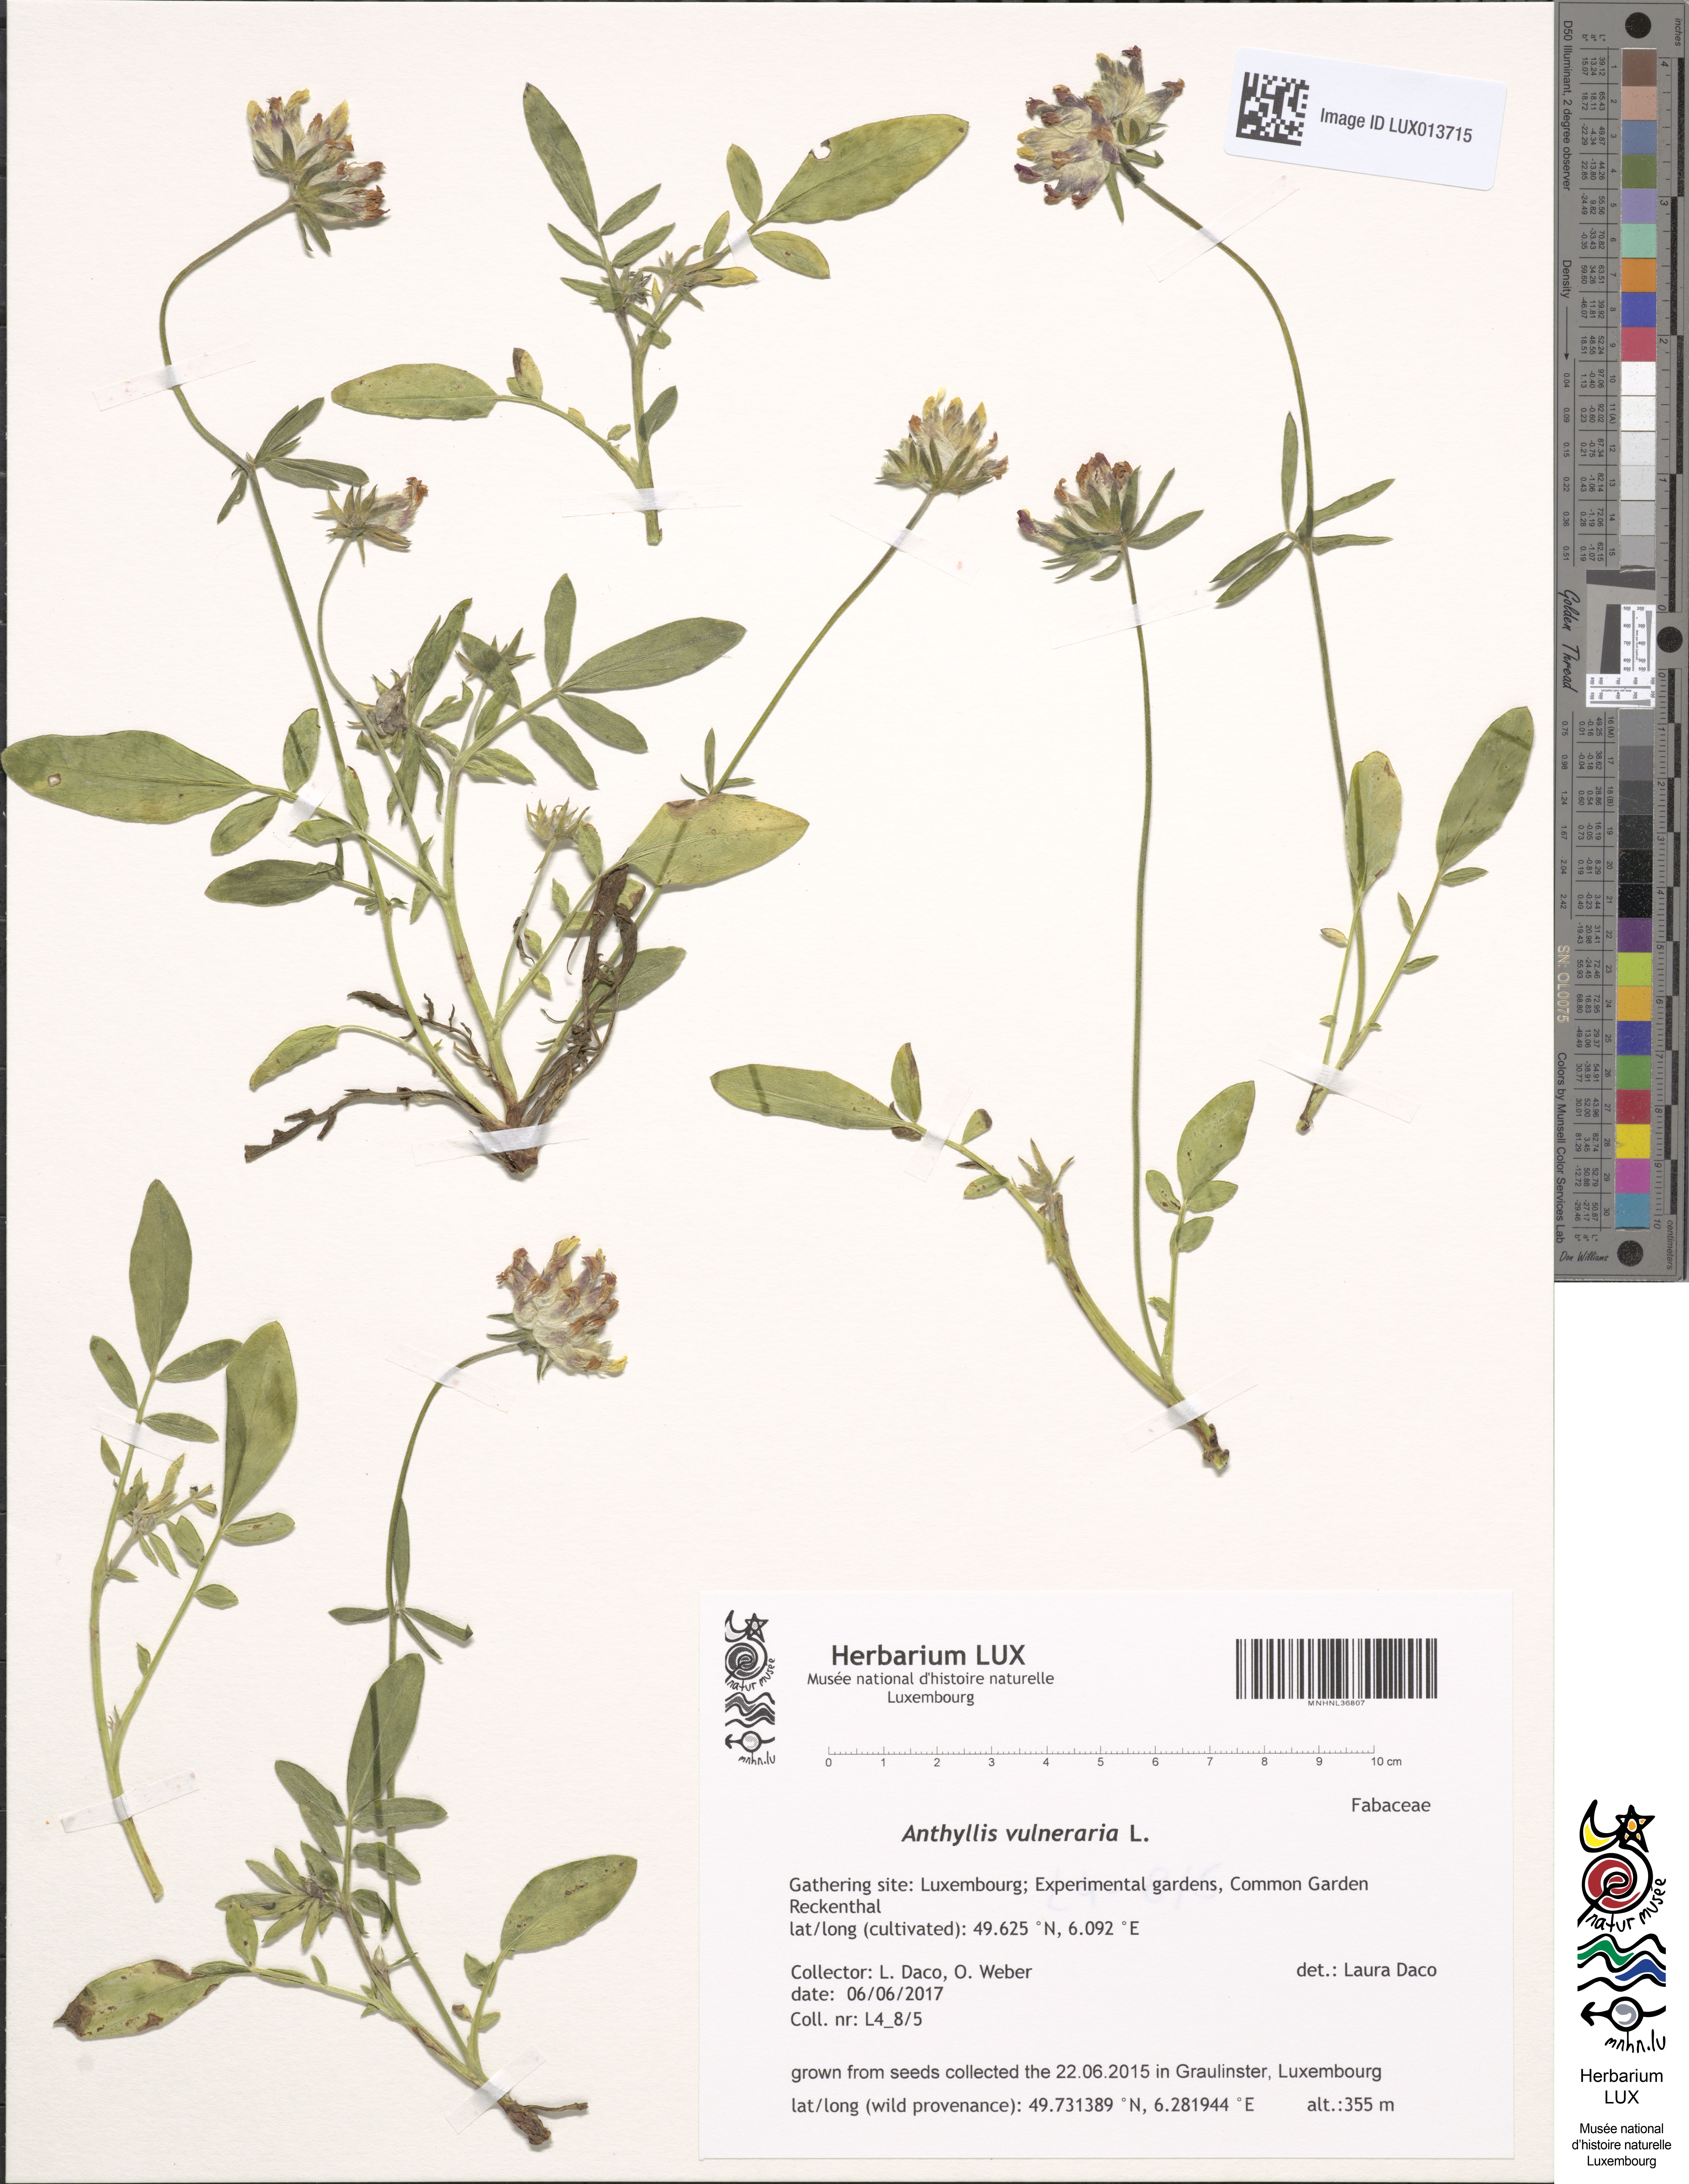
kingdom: Plantae
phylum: Tracheophyta
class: Magnoliopsida
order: Fabales
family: Fabaceae
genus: Anthyllis
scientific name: Anthyllis vulneraria
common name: Kidney vetch
